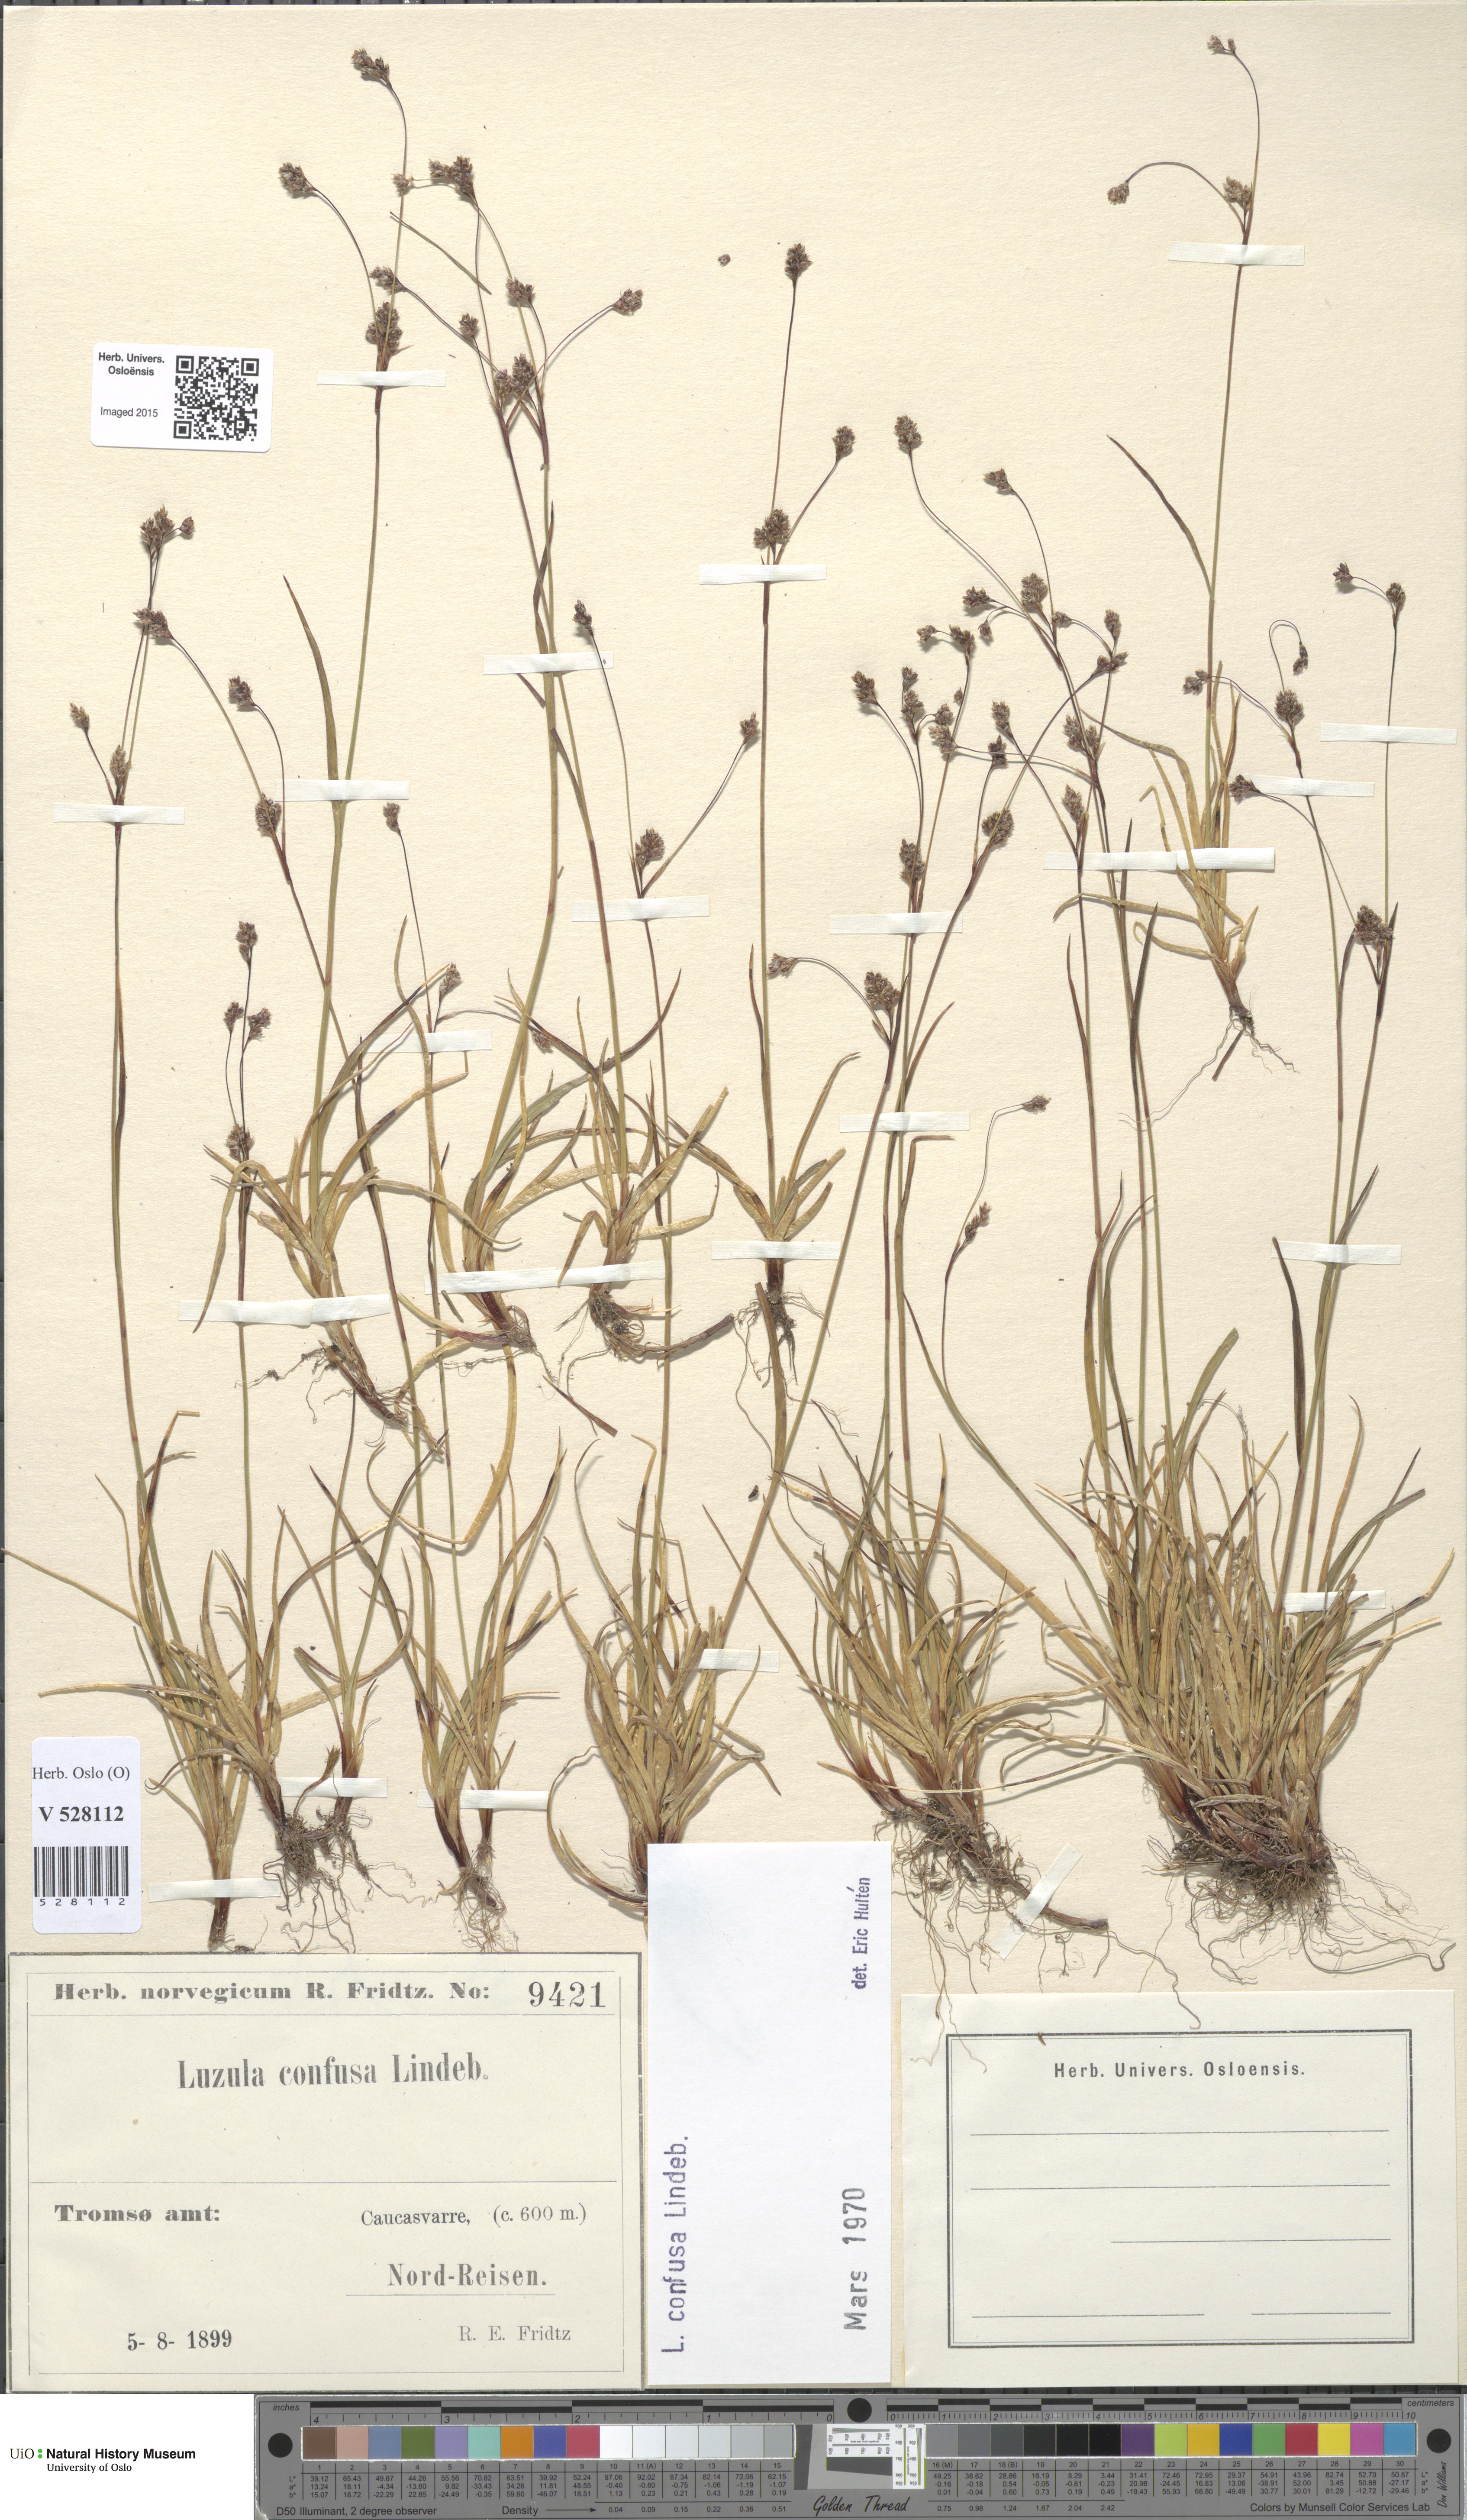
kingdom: Plantae
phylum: Tracheophyta
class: Liliopsida
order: Poales
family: Juncaceae
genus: Luzula
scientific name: Luzula confusa
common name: Northern wood rush
